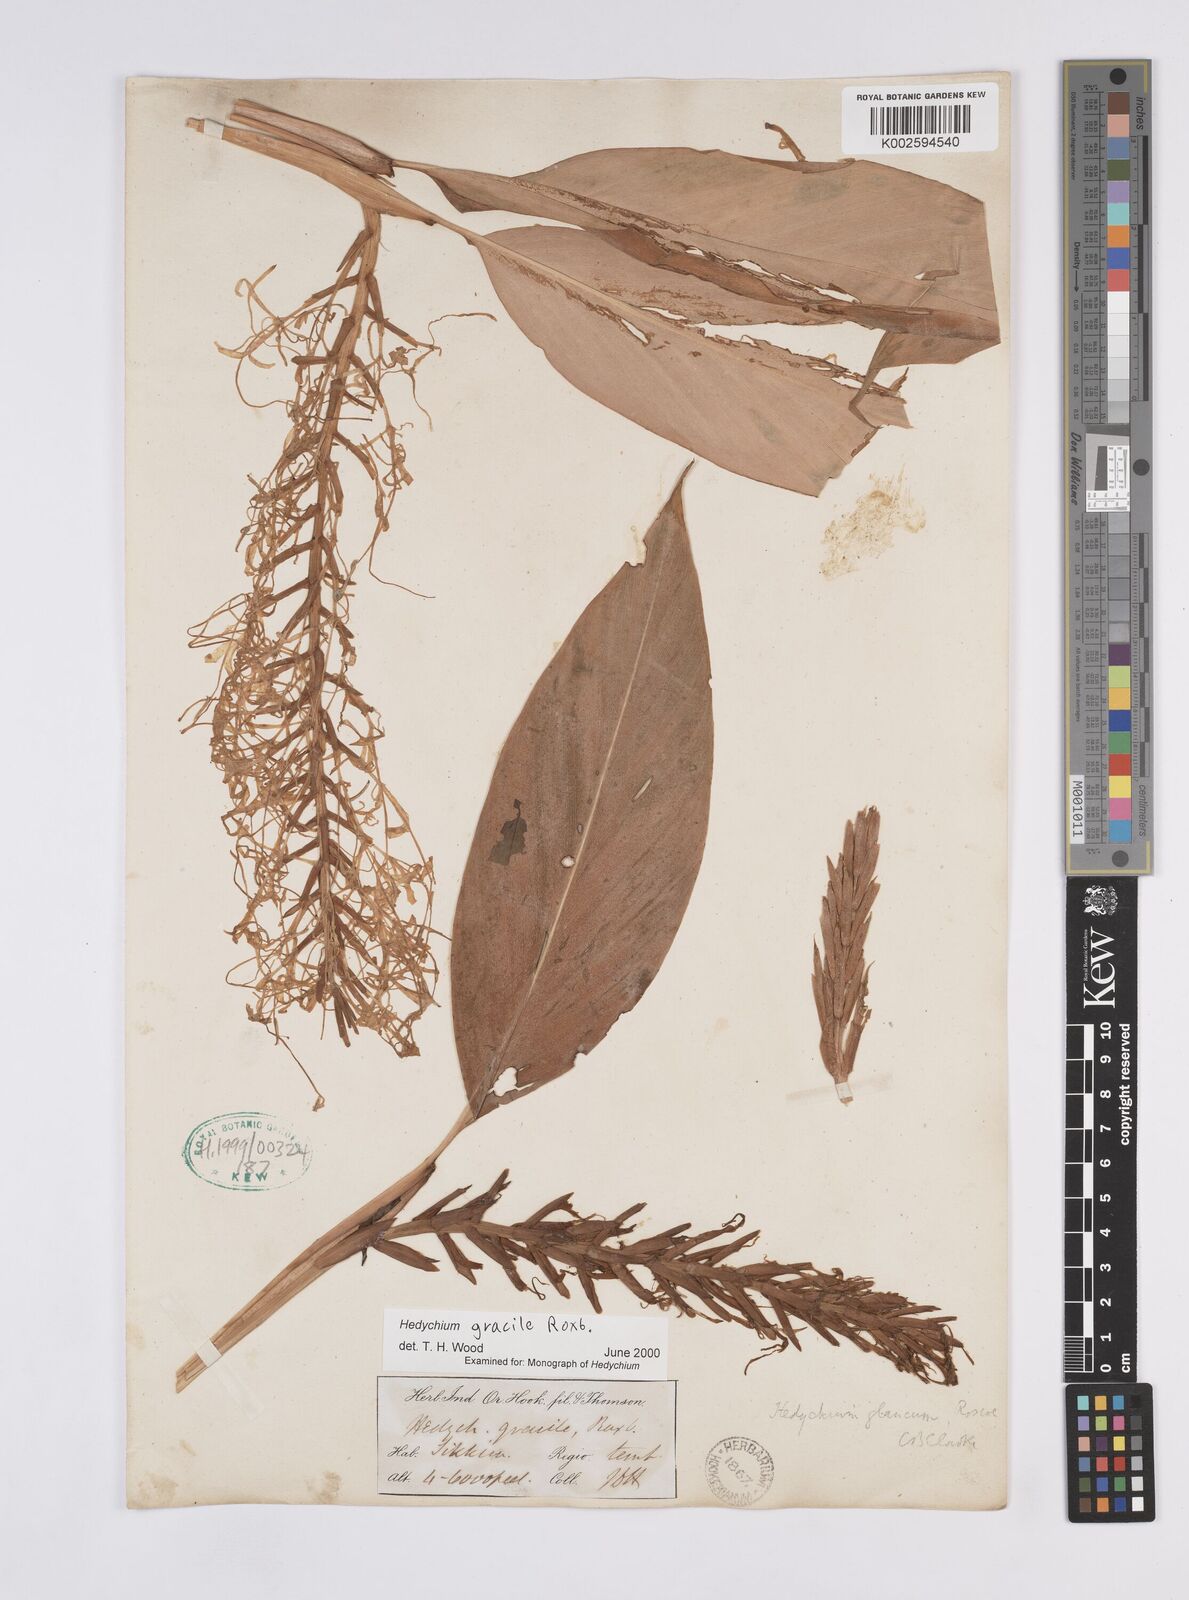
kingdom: Plantae
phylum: Tracheophyta
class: Liliopsida
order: Zingiberales
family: Zingiberaceae
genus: Hedychium
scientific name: Hedychium glaucum
